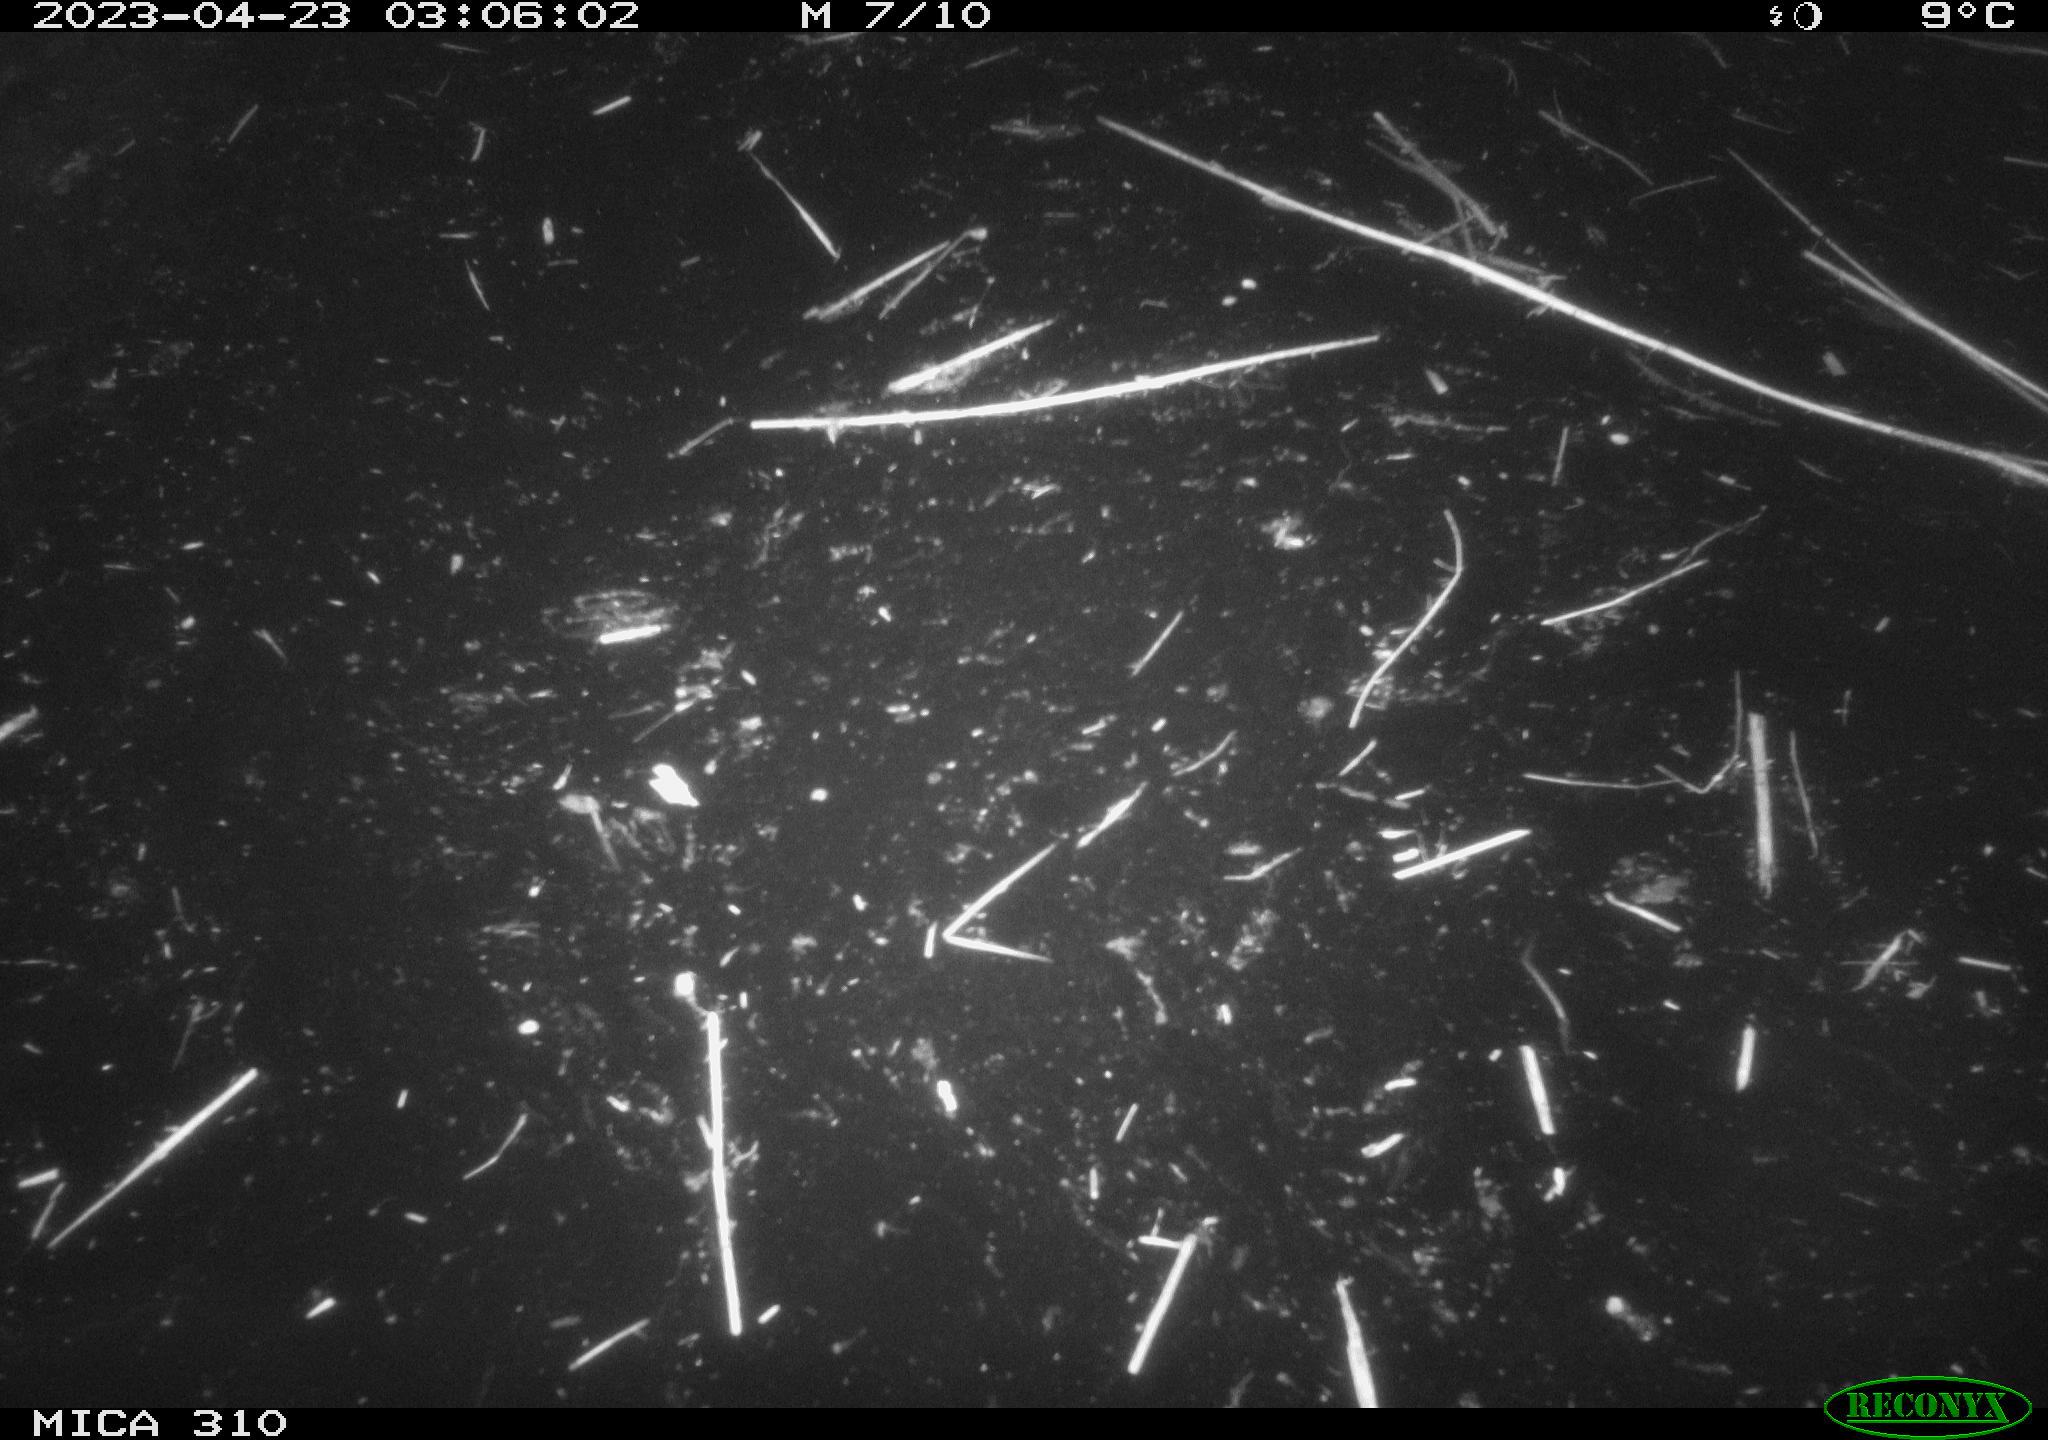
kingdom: Animalia
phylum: Chordata
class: Aves
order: Anseriformes
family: Anatidae
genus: Anas
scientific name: Anas
